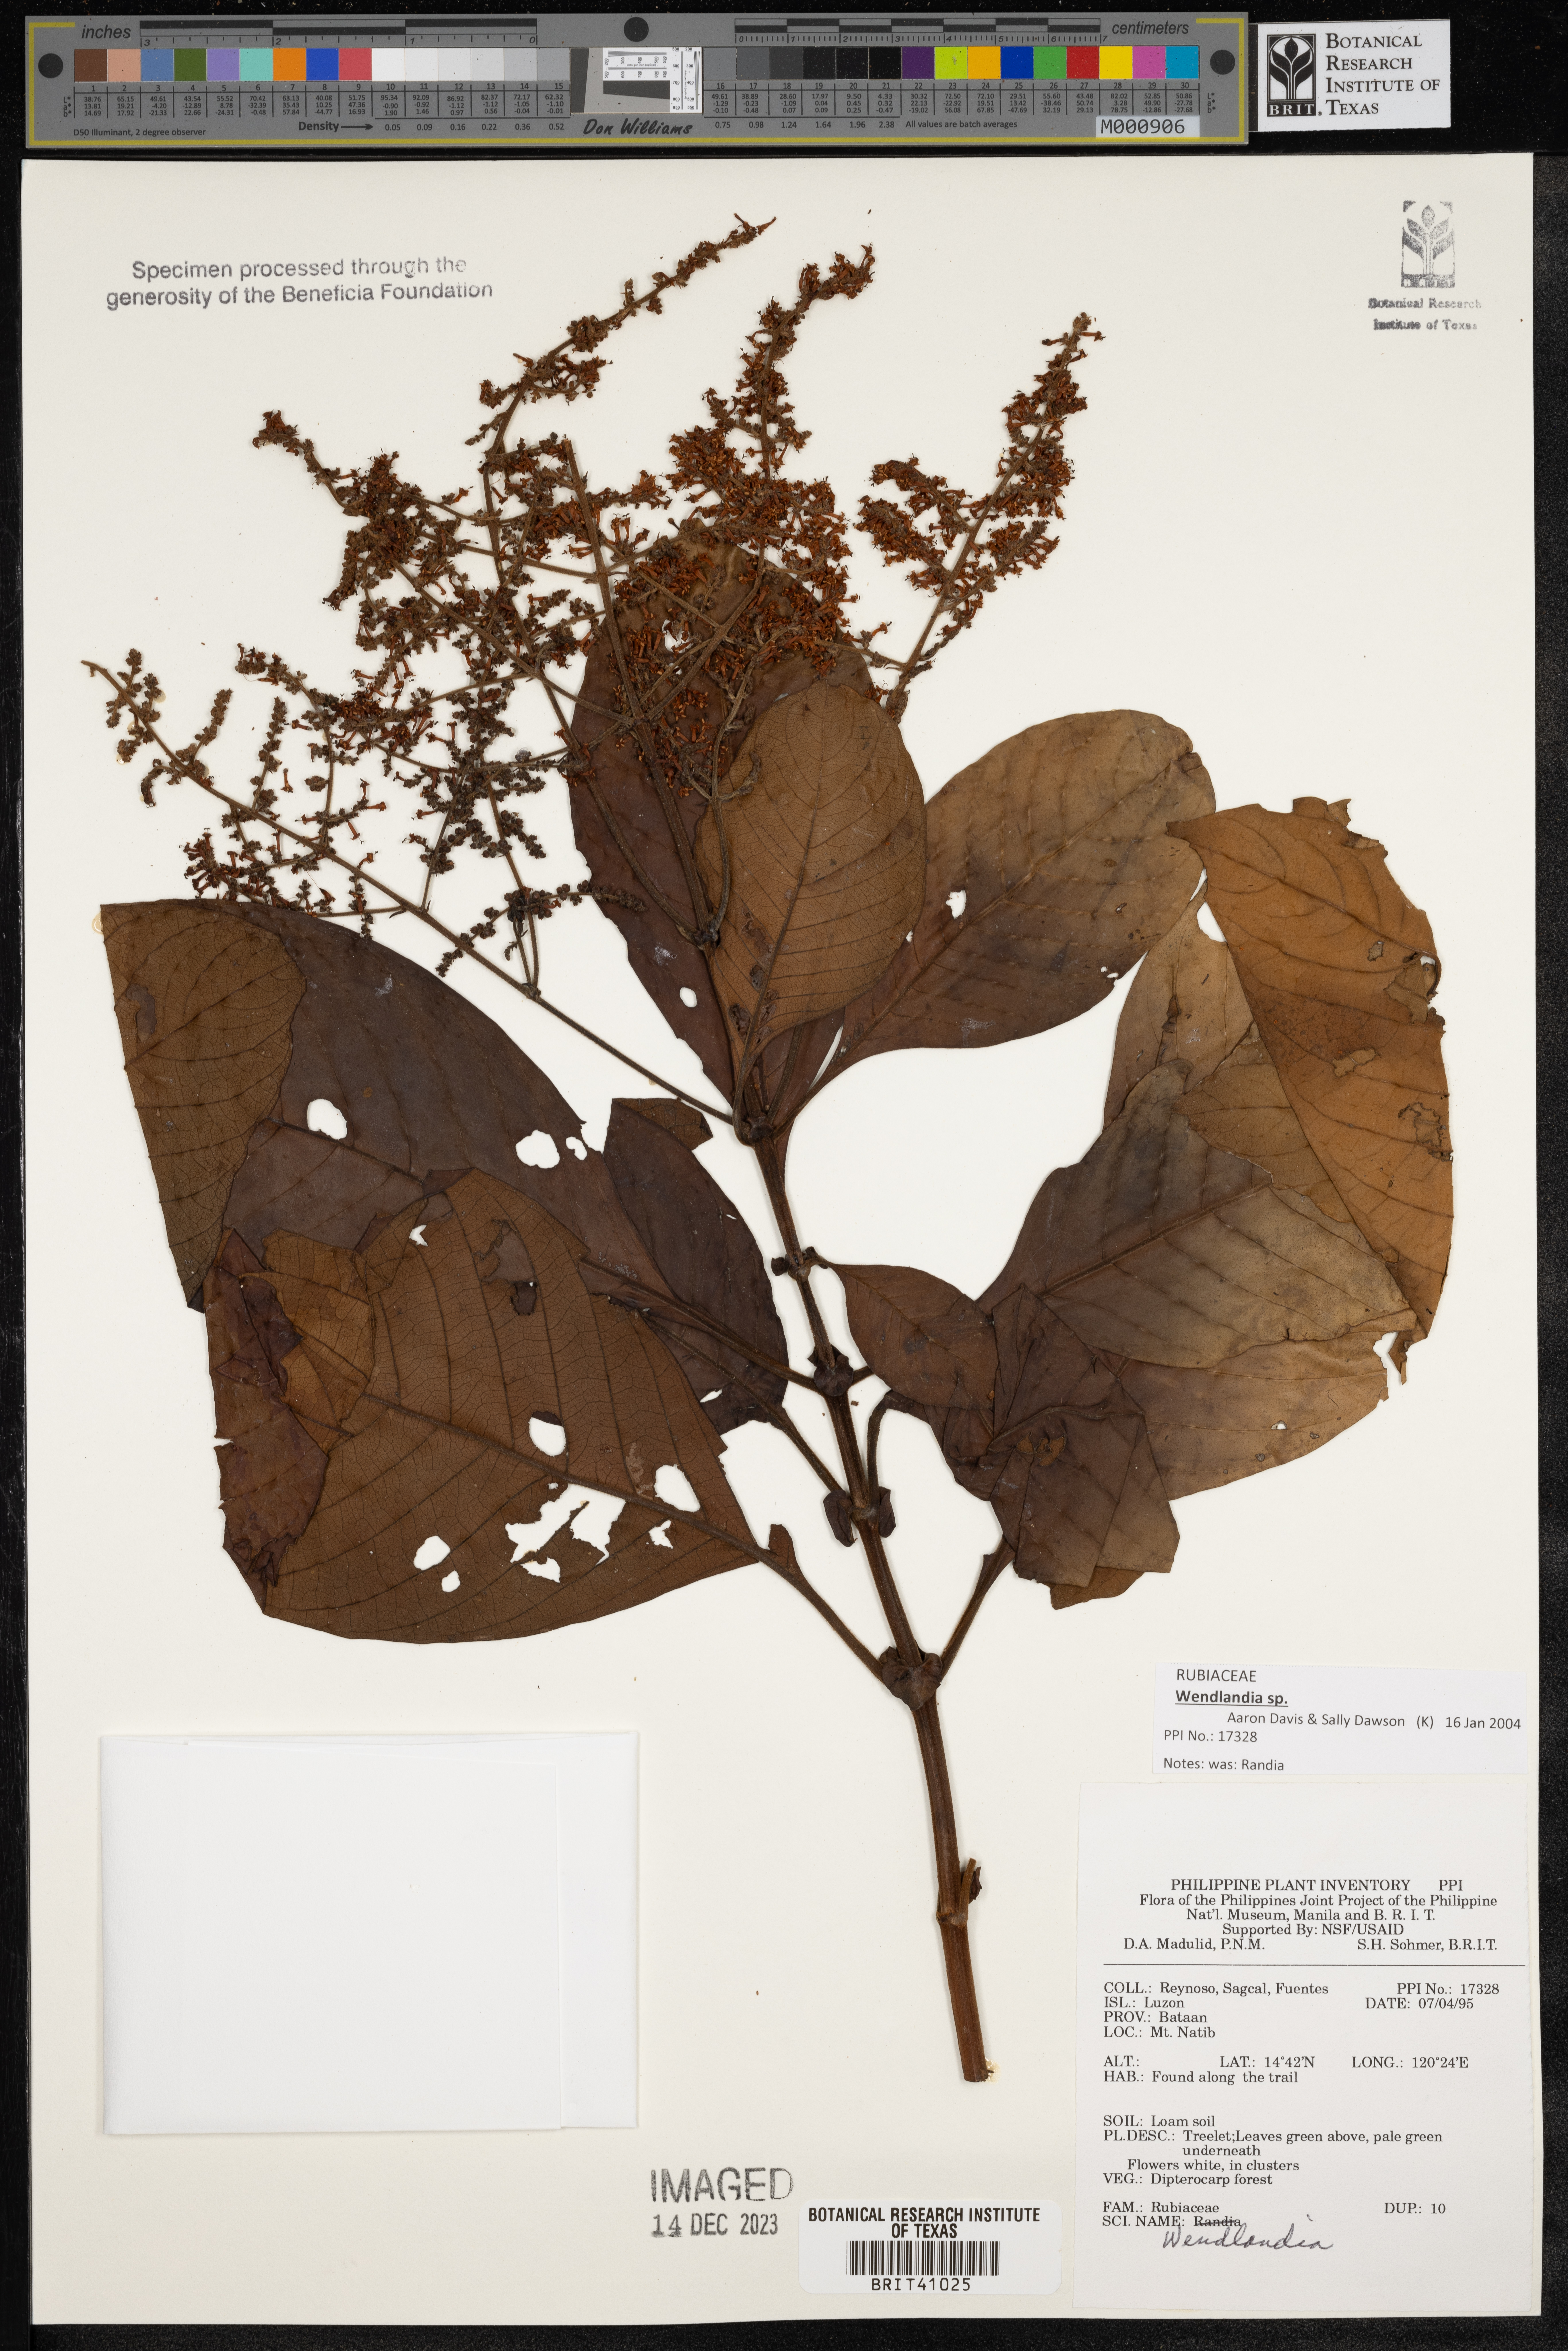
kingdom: Plantae
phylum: Tracheophyta
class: Magnoliopsida
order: Gentianales
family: Rubiaceae
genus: Wendlandia
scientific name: Wendlandia
